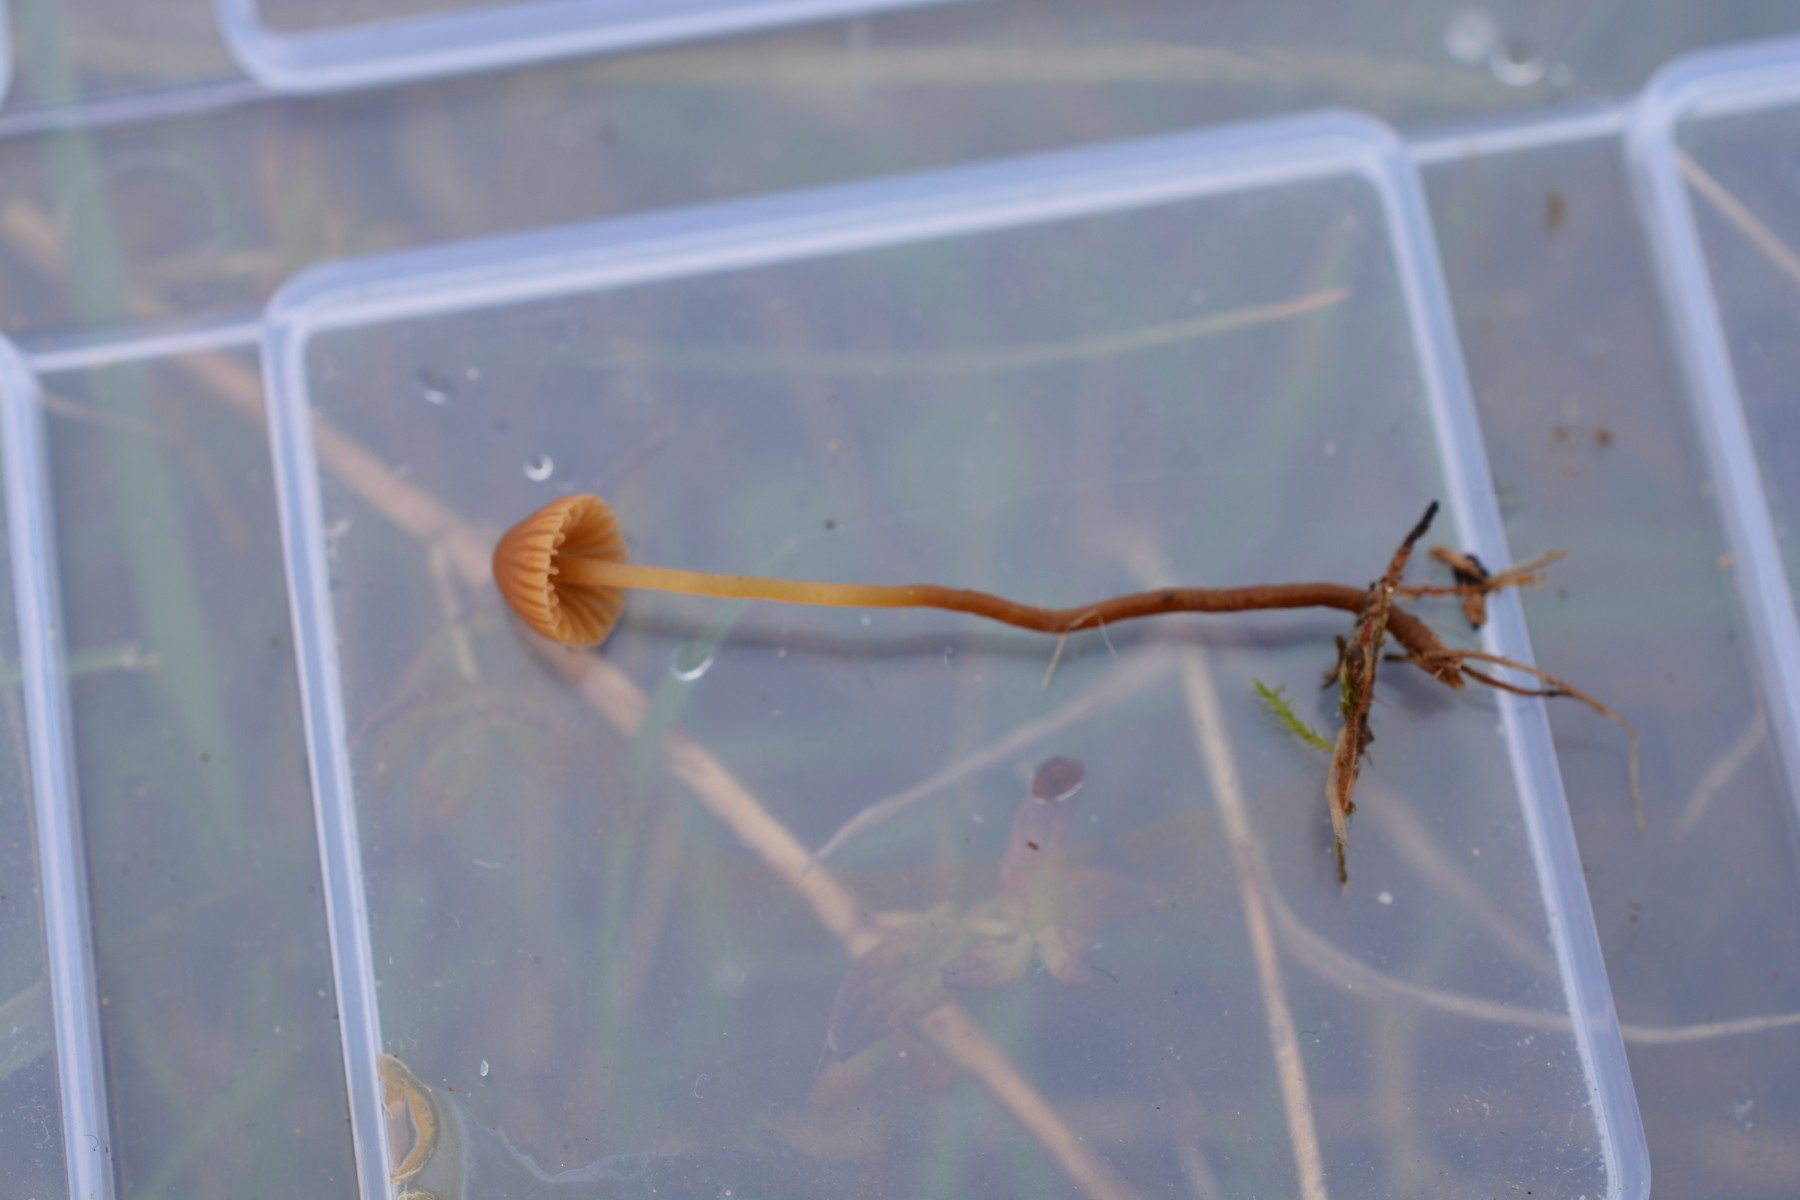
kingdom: Fungi
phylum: Basidiomycota
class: Agaricomycetes
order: Agaricales
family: Hymenogastraceae
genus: Galerina
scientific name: Galerina
